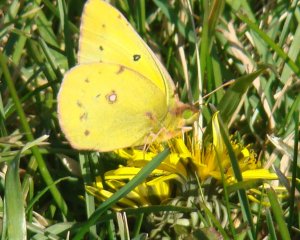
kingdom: Animalia
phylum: Arthropoda
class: Insecta
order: Lepidoptera
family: Pieridae
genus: Colias
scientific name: Colias eurytheme
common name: Orange Sulphur
